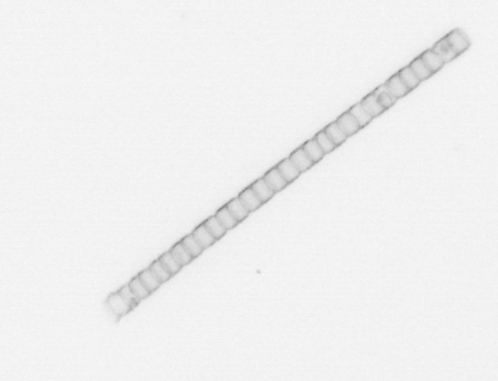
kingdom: Chromista
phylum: Ochrophyta
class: Bacillariophyceae
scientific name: Bacillariophyceae
